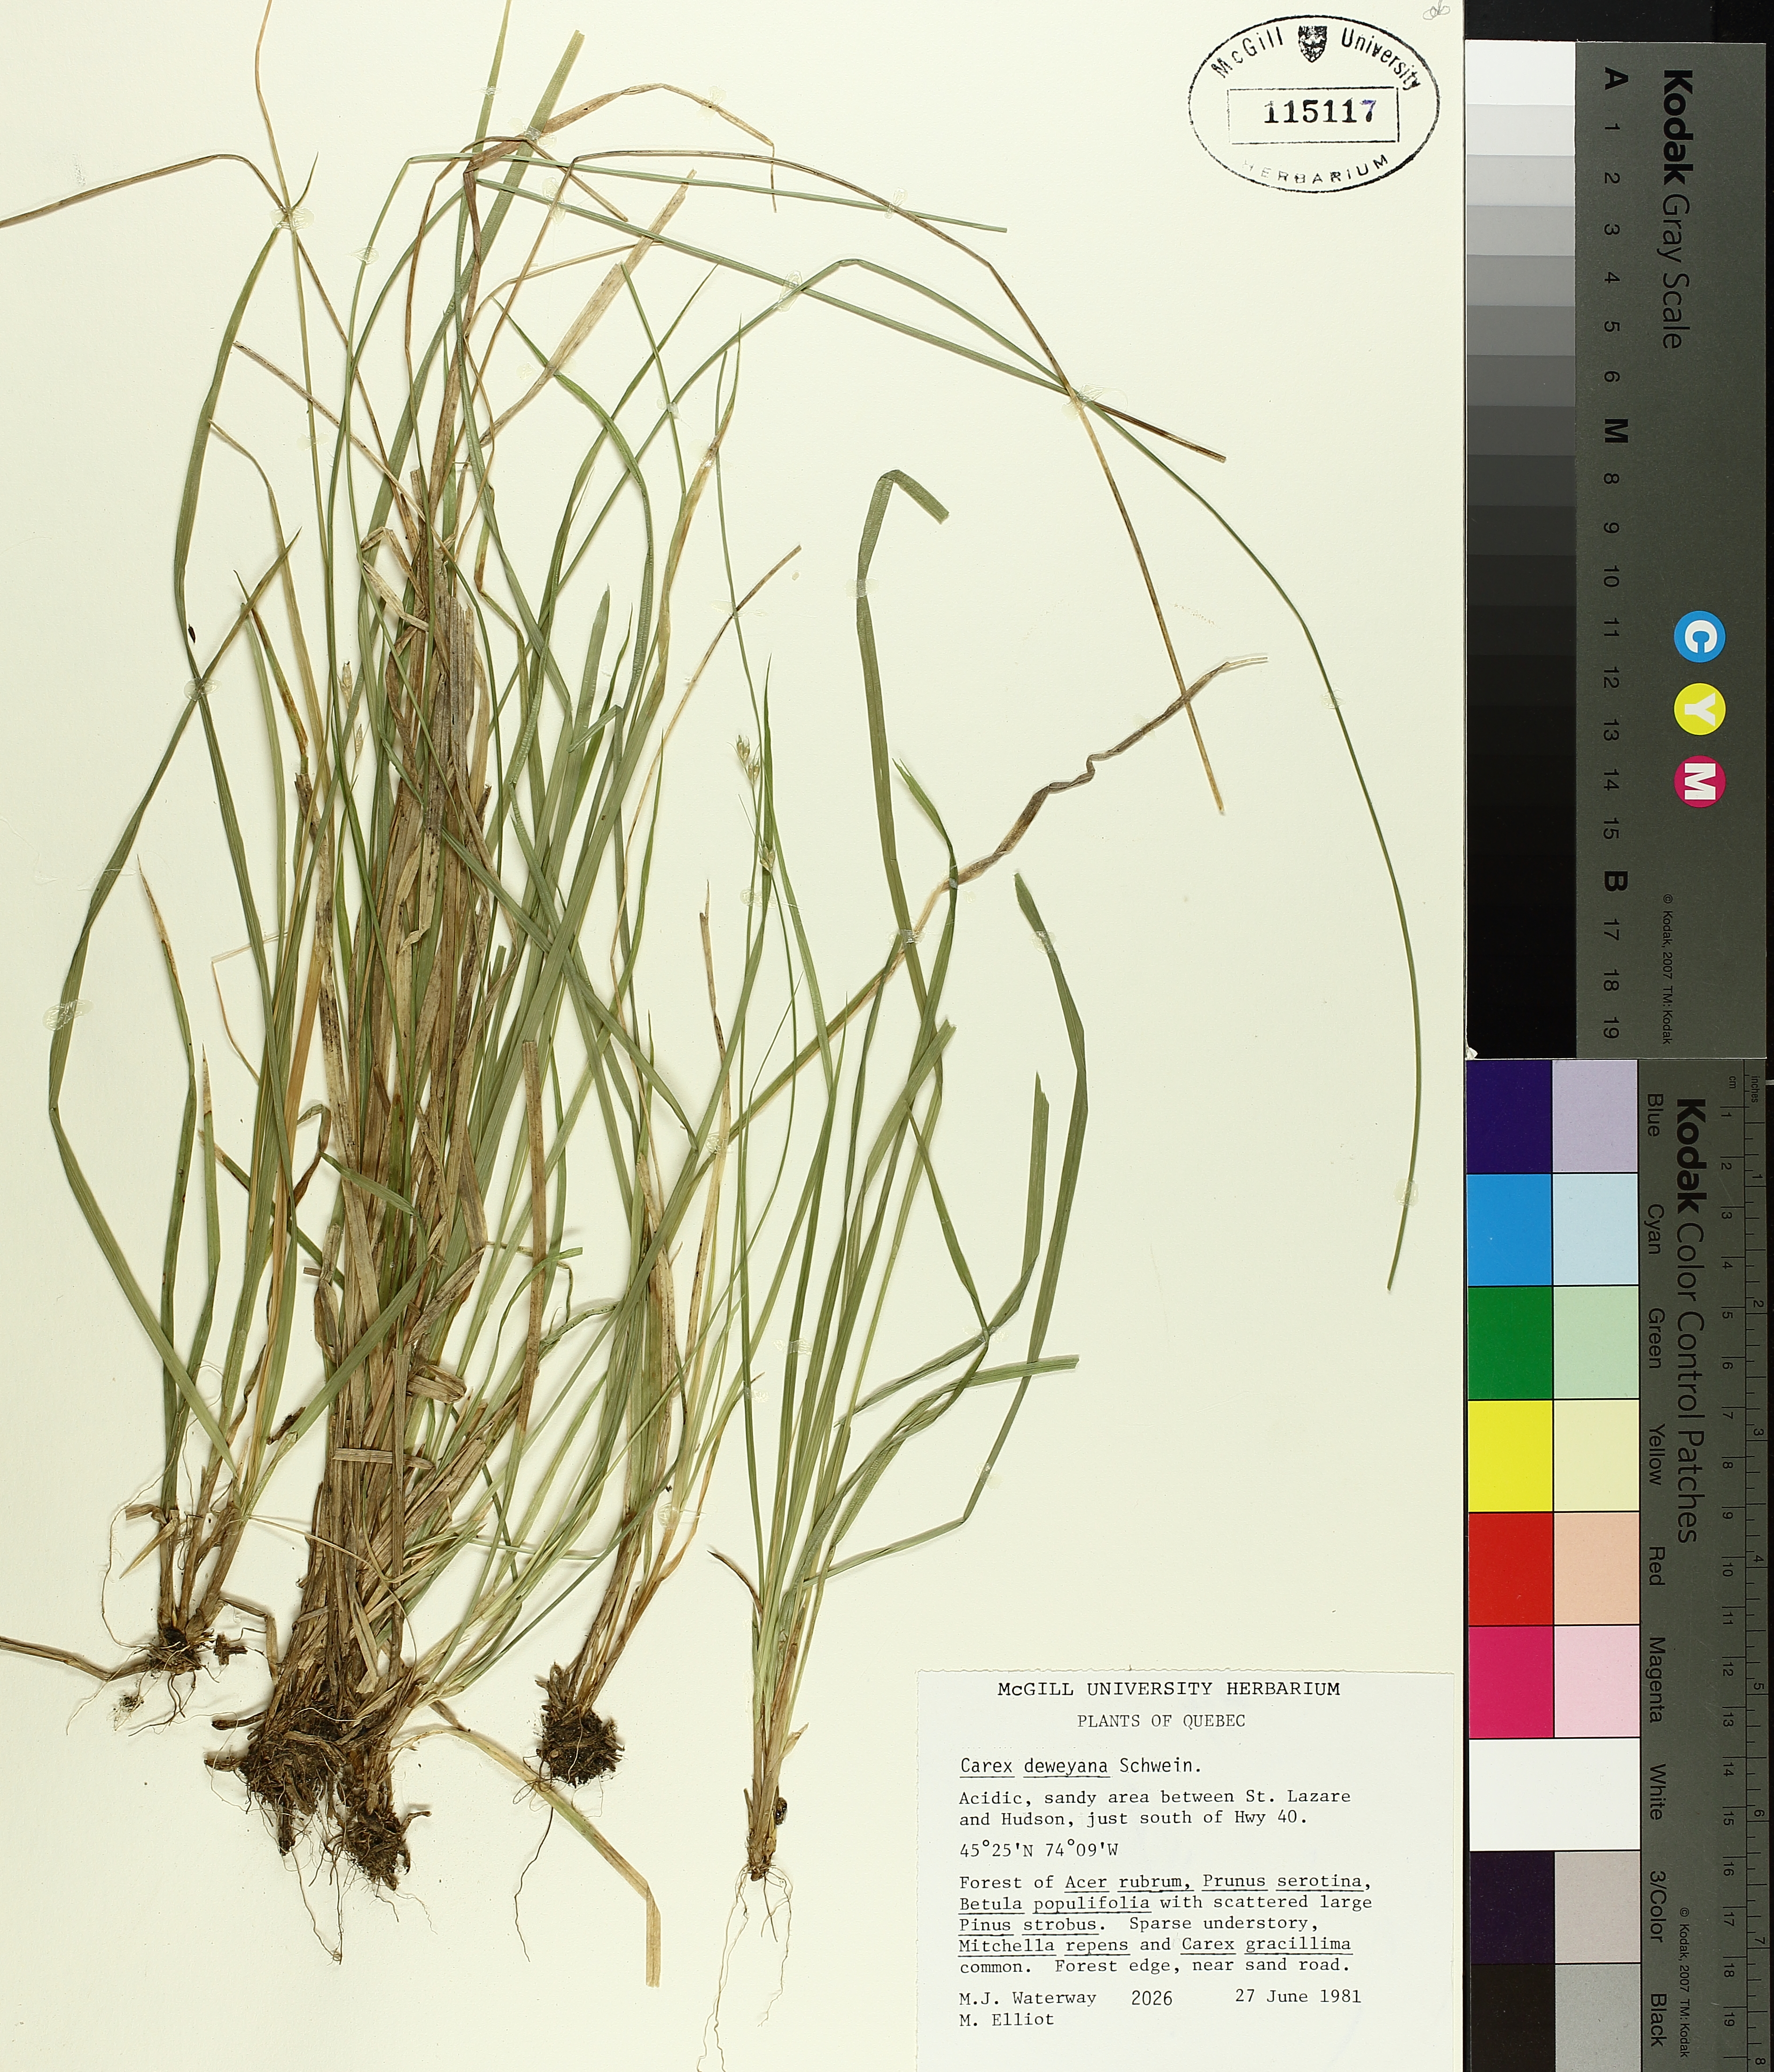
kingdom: Plantae
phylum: Tracheophyta
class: Liliopsida
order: Poales
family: Cyperaceae
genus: Carex
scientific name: Carex deweyana
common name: Dewey's sedge
